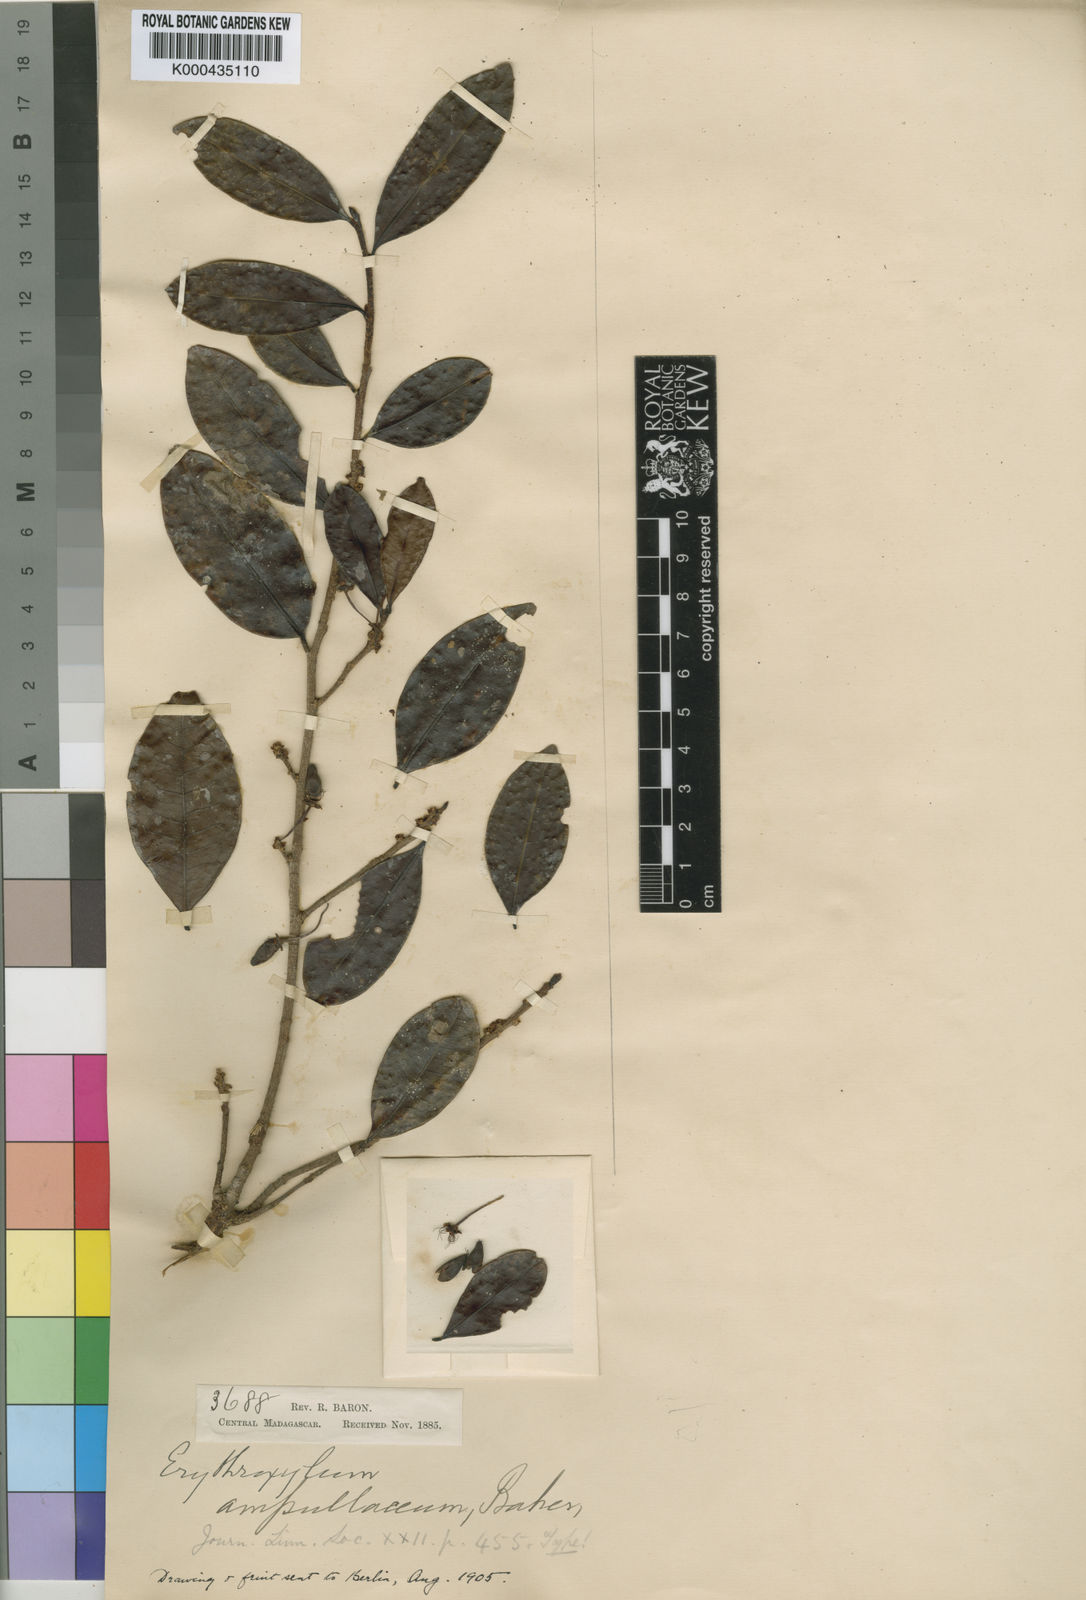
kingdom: Plantae
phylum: Tracheophyta
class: Magnoliopsida
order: Malpighiales
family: Erythroxylaceae
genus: Erythroxylum
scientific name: Erythroxylum firmum
